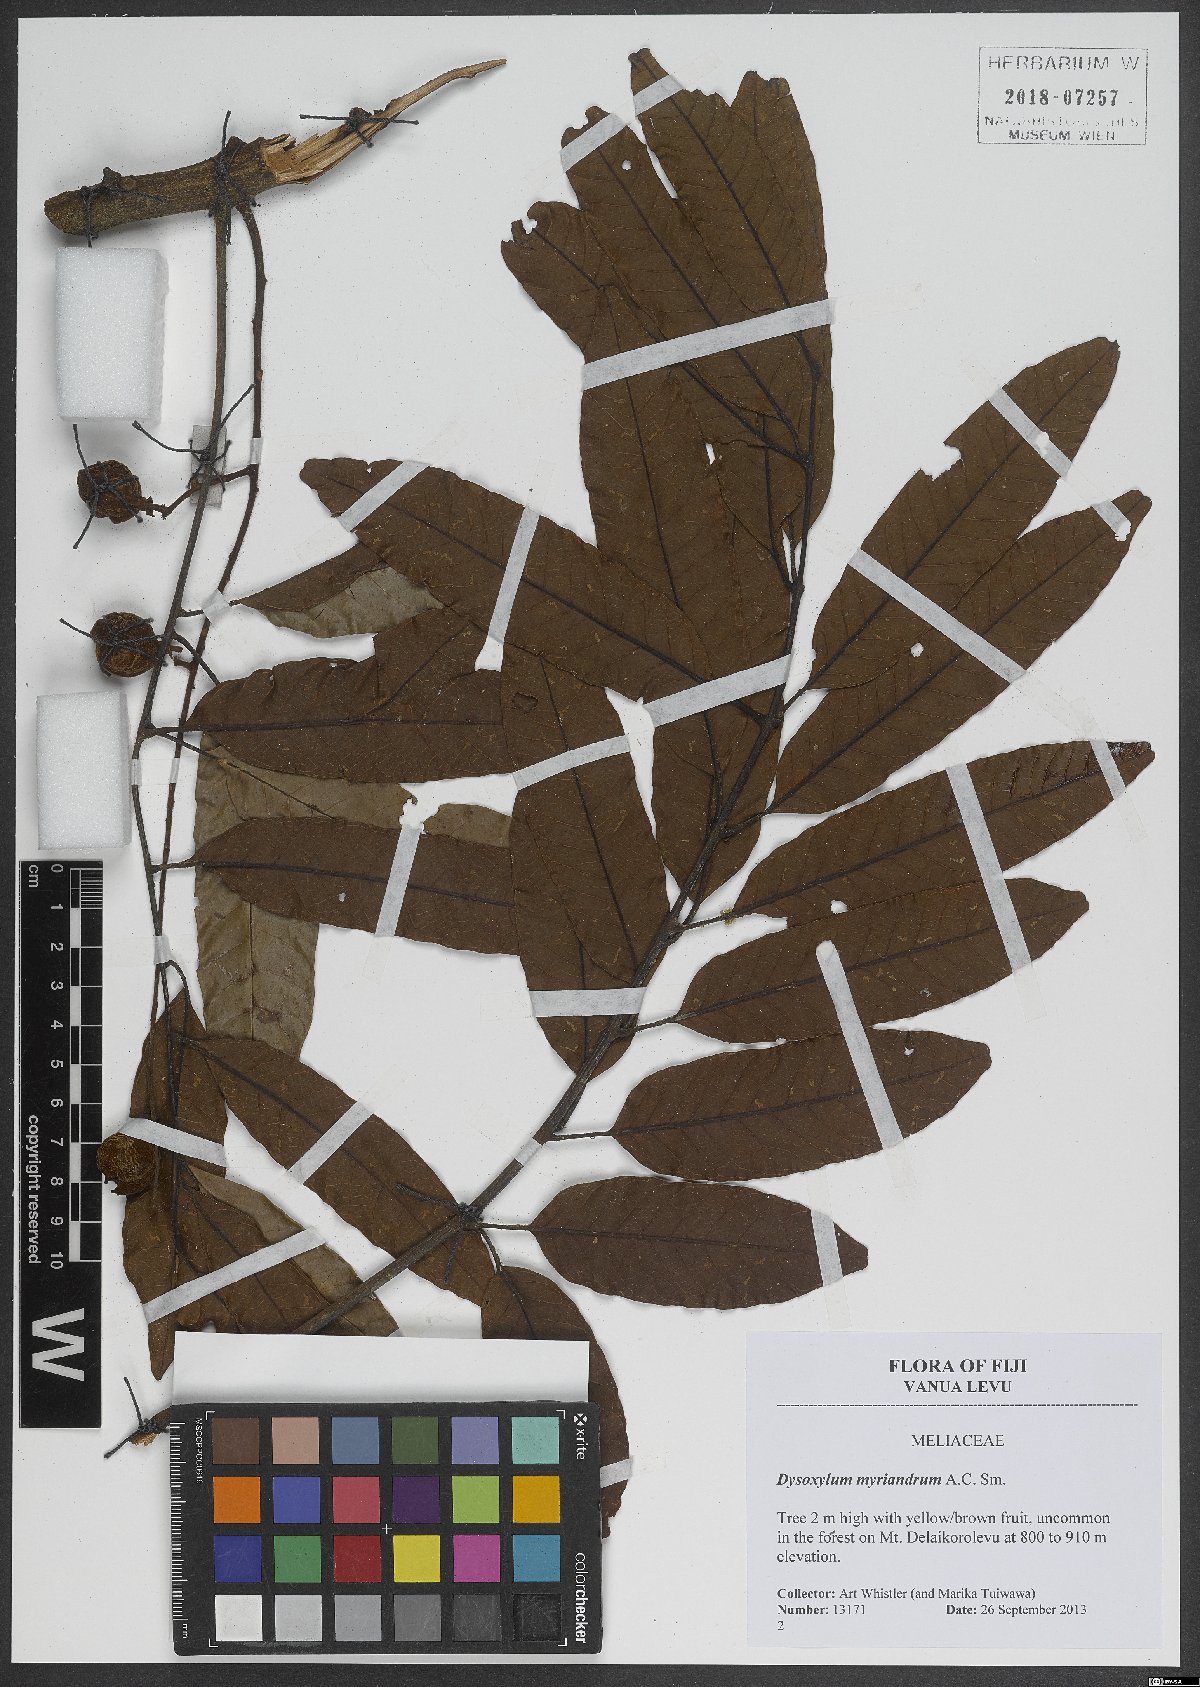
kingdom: Plantae
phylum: Tracheophyta
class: Magnoliopsida
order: Sapindales
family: Meliaceae
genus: Didymocheton
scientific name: Didymocheton myriandrus
